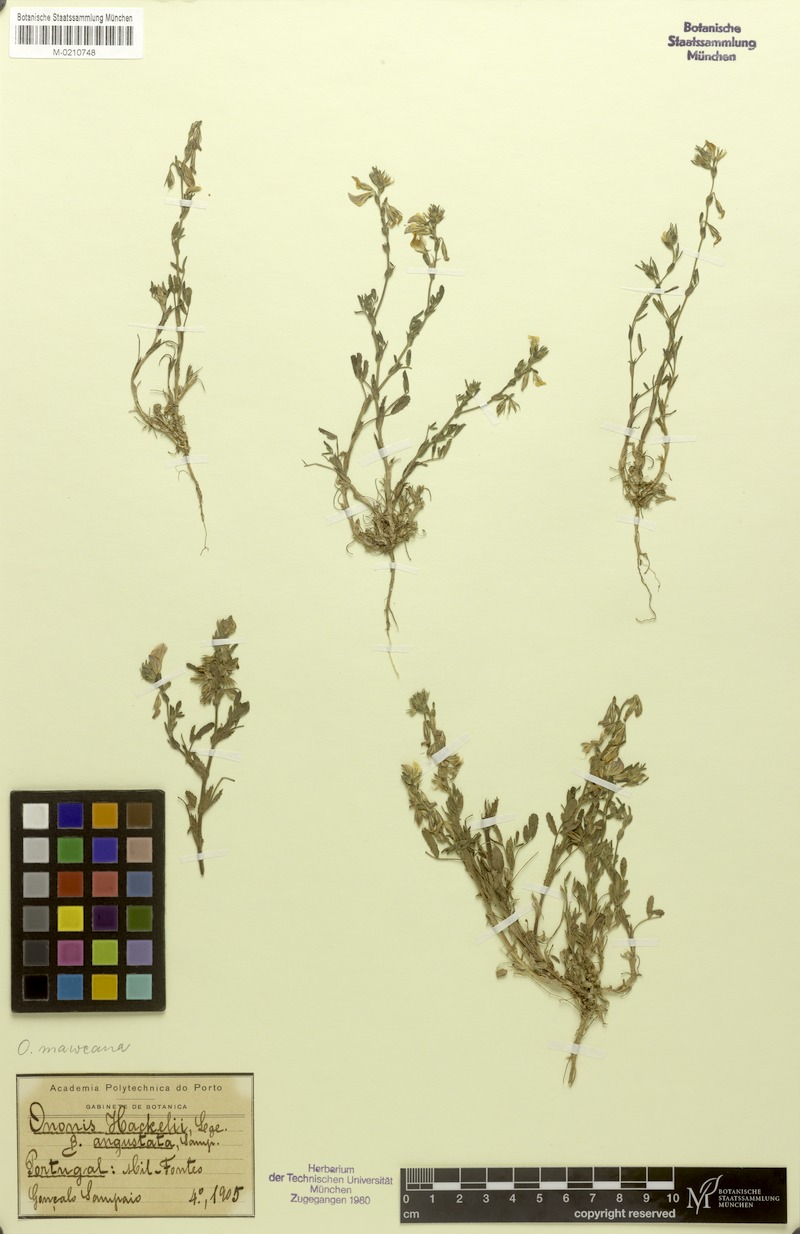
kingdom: Plantae
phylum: Tracheophyta
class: Magnoliopsida
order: Fabales
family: Fabaceae
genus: Ononis
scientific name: Ononis maweana
